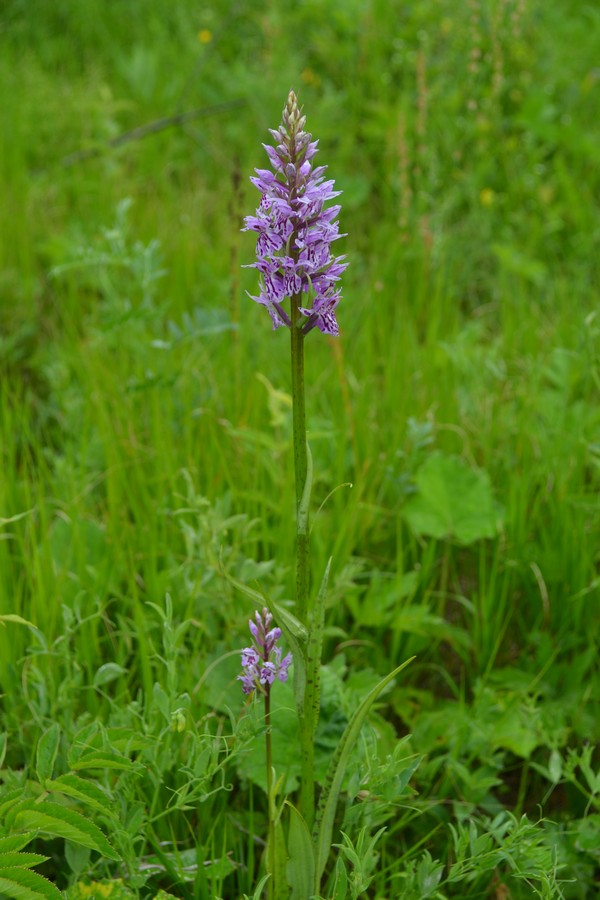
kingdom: Plantae
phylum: Tracheophyta
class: Liliopsida
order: Asparagales
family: Orchidaceae
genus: Dactylorhiza
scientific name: Dactylorhiza maculata
